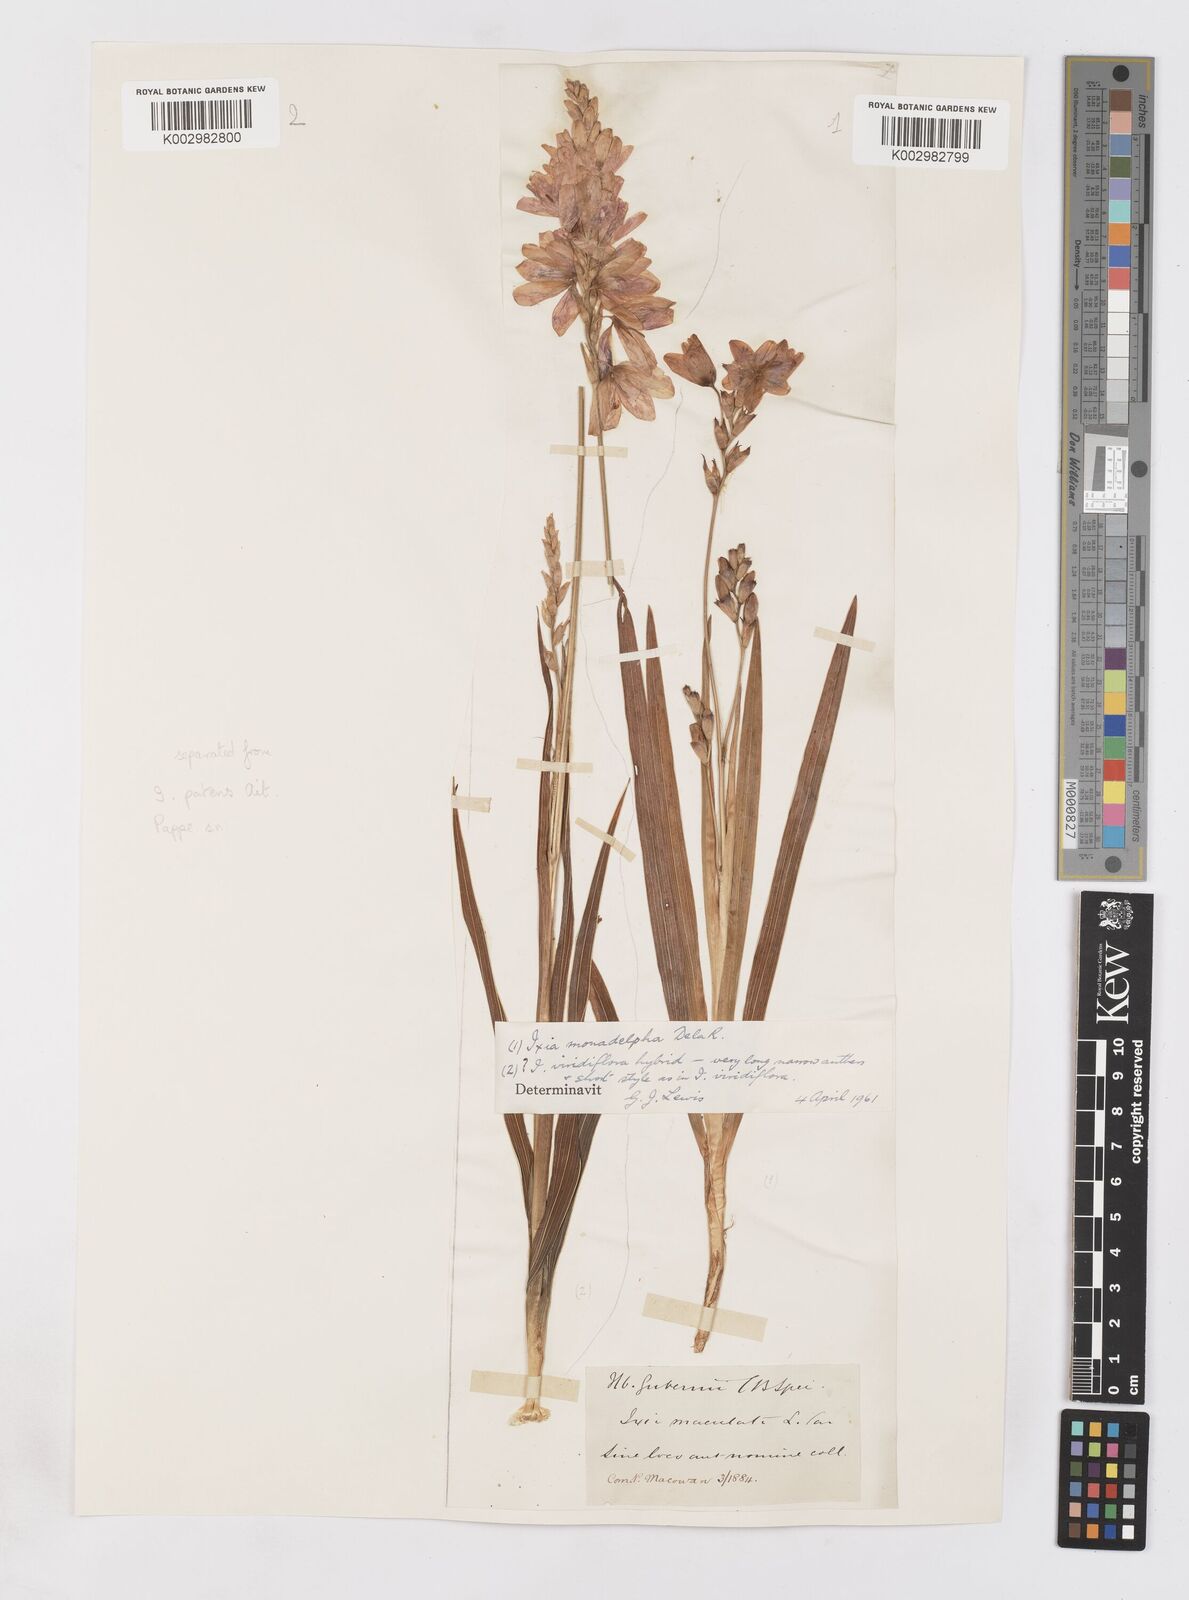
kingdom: Plantae
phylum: Tracheophyta
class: Liliopsida
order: Asparagales
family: Iridaceae
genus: Ixia
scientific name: Ixia monadelpha
